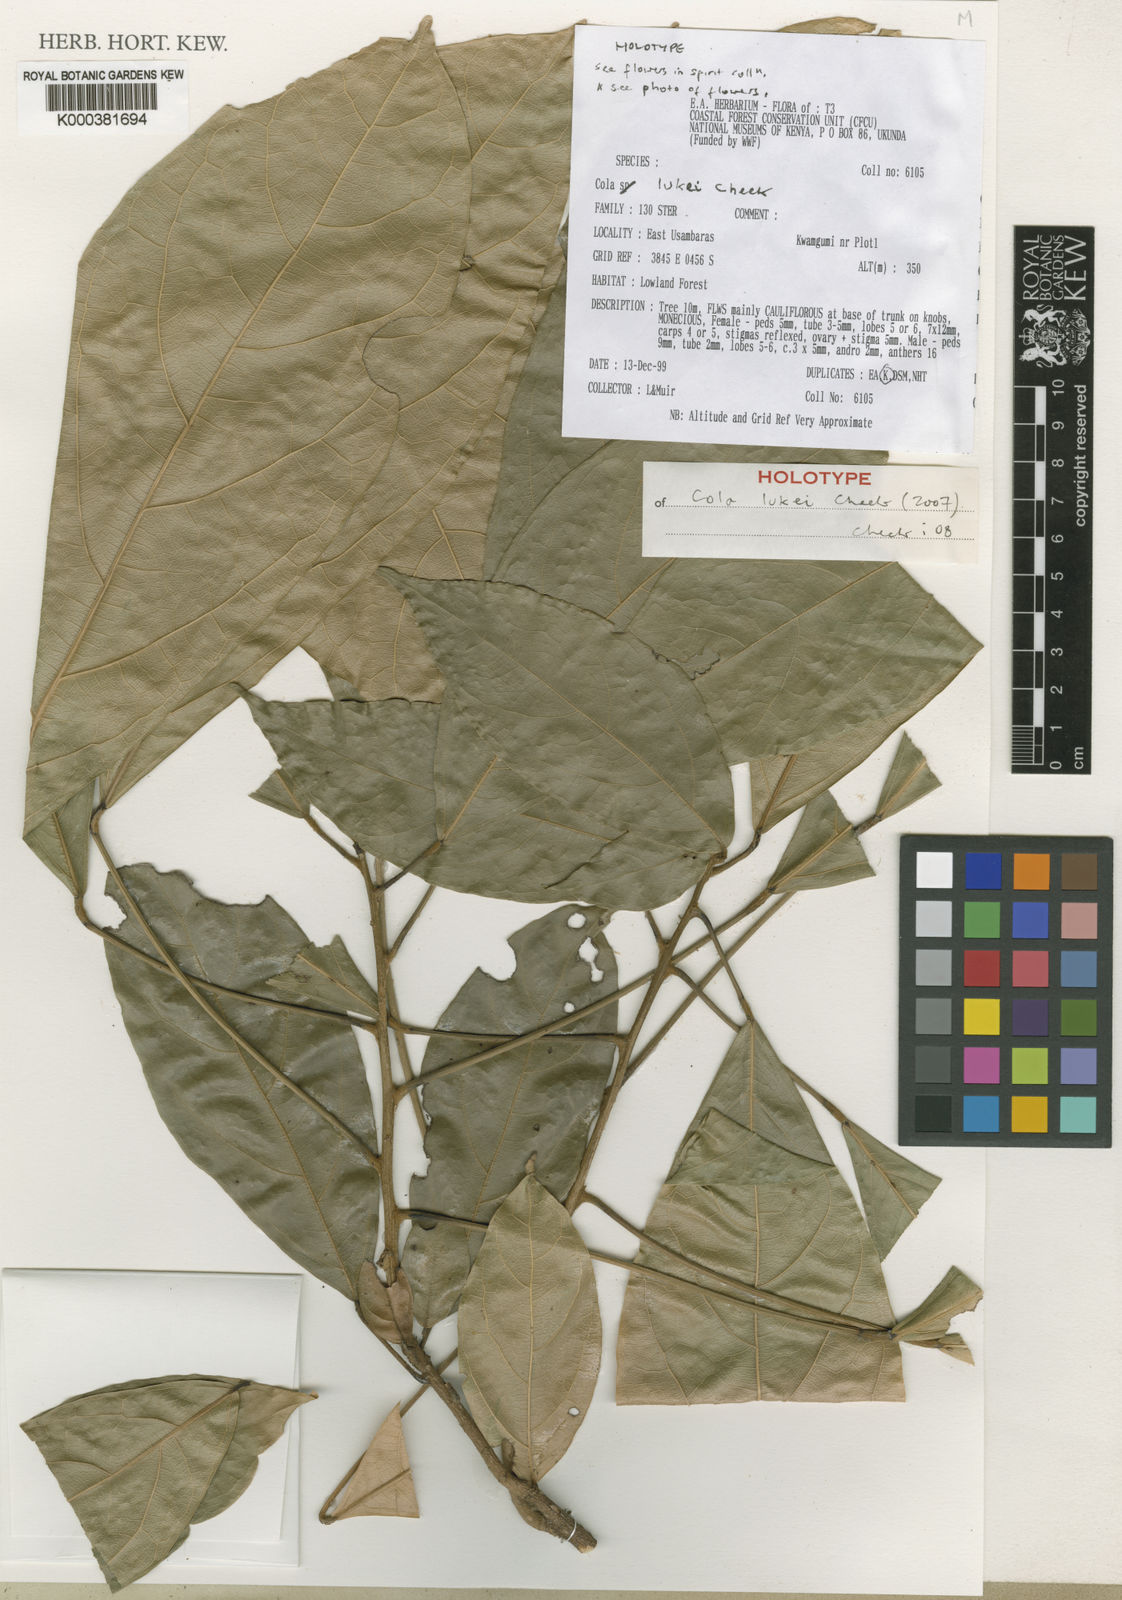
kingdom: Plantae
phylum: Tracheophyta
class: Magnoliopsida
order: Malvales
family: Malvaceae
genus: Cola
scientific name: Cola lukei
